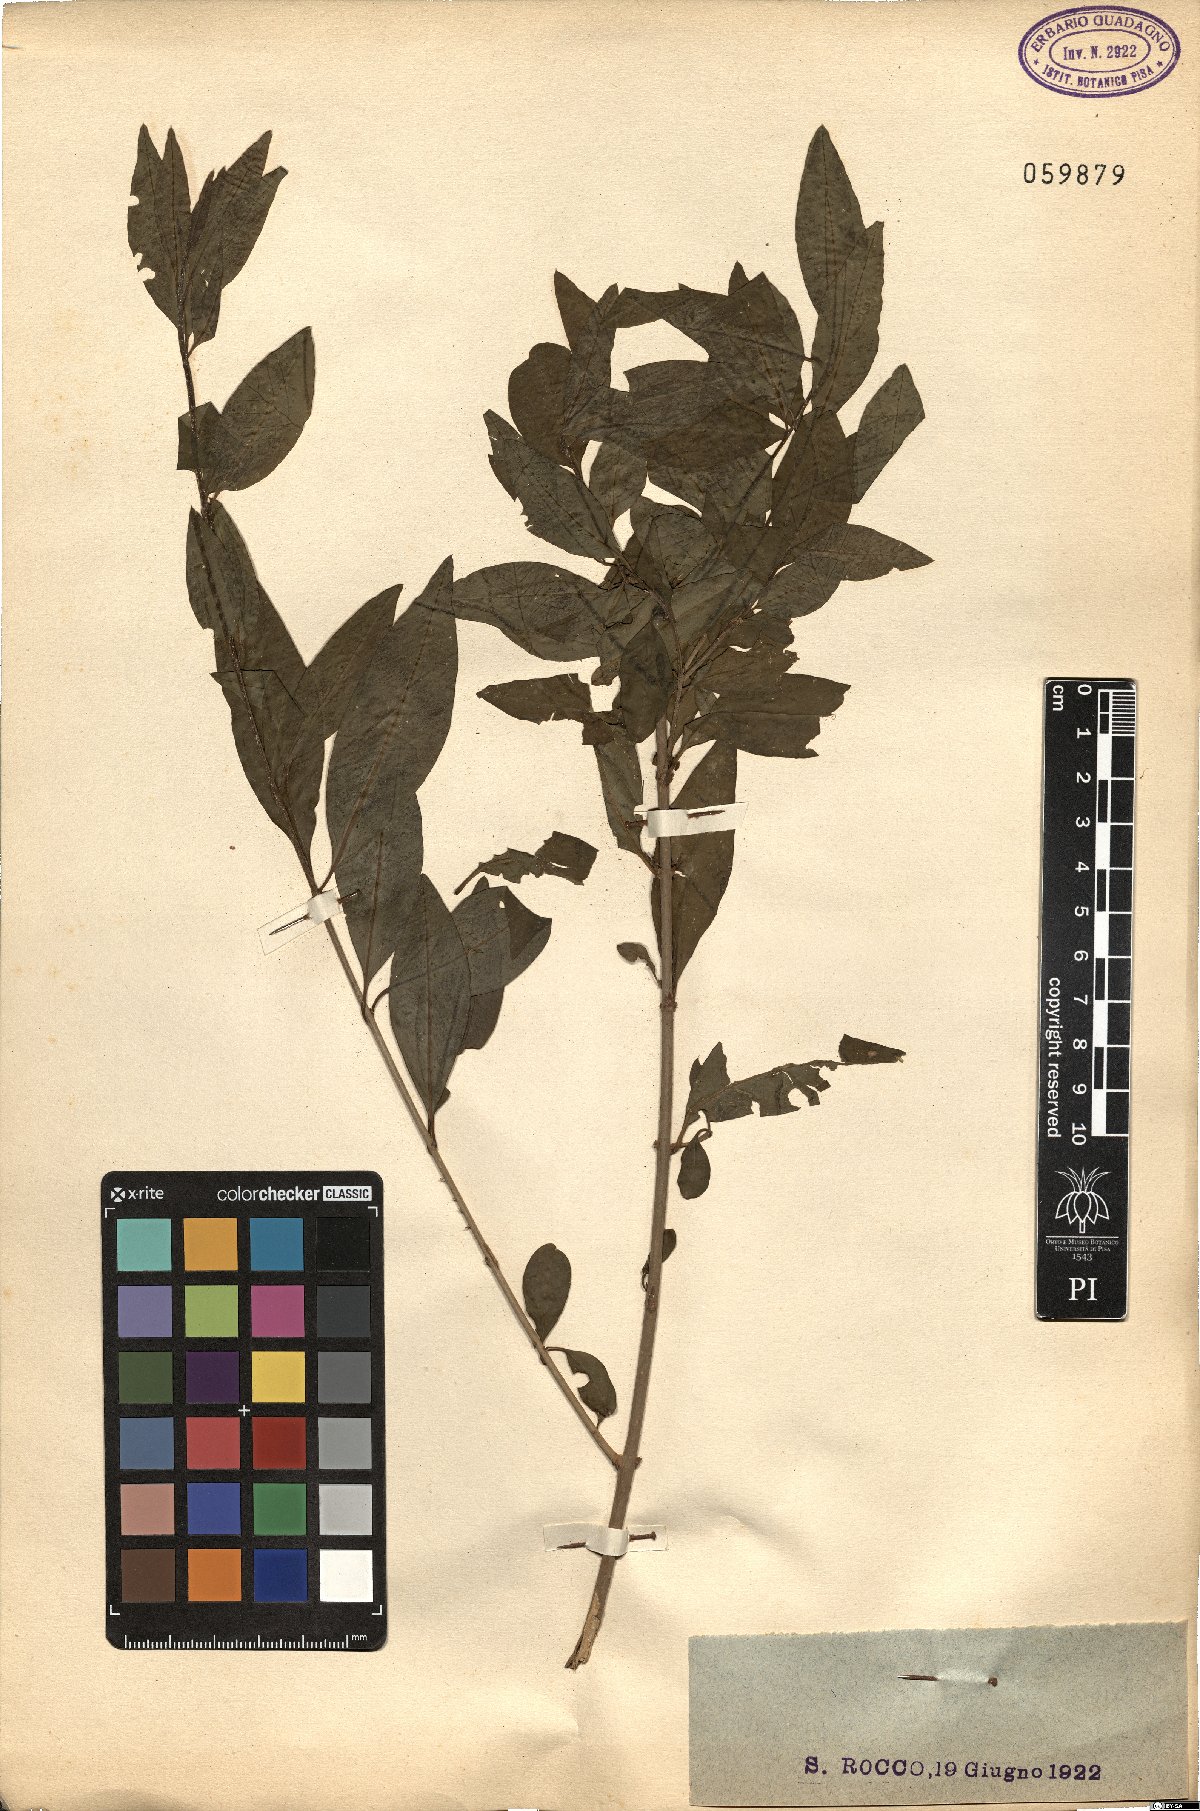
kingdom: Plantae
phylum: Tracheophyta
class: Magnoliopsida
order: Lamiales
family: Oleaceae
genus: Ligustrum
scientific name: Ligustrum vulgare
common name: Wild privet
